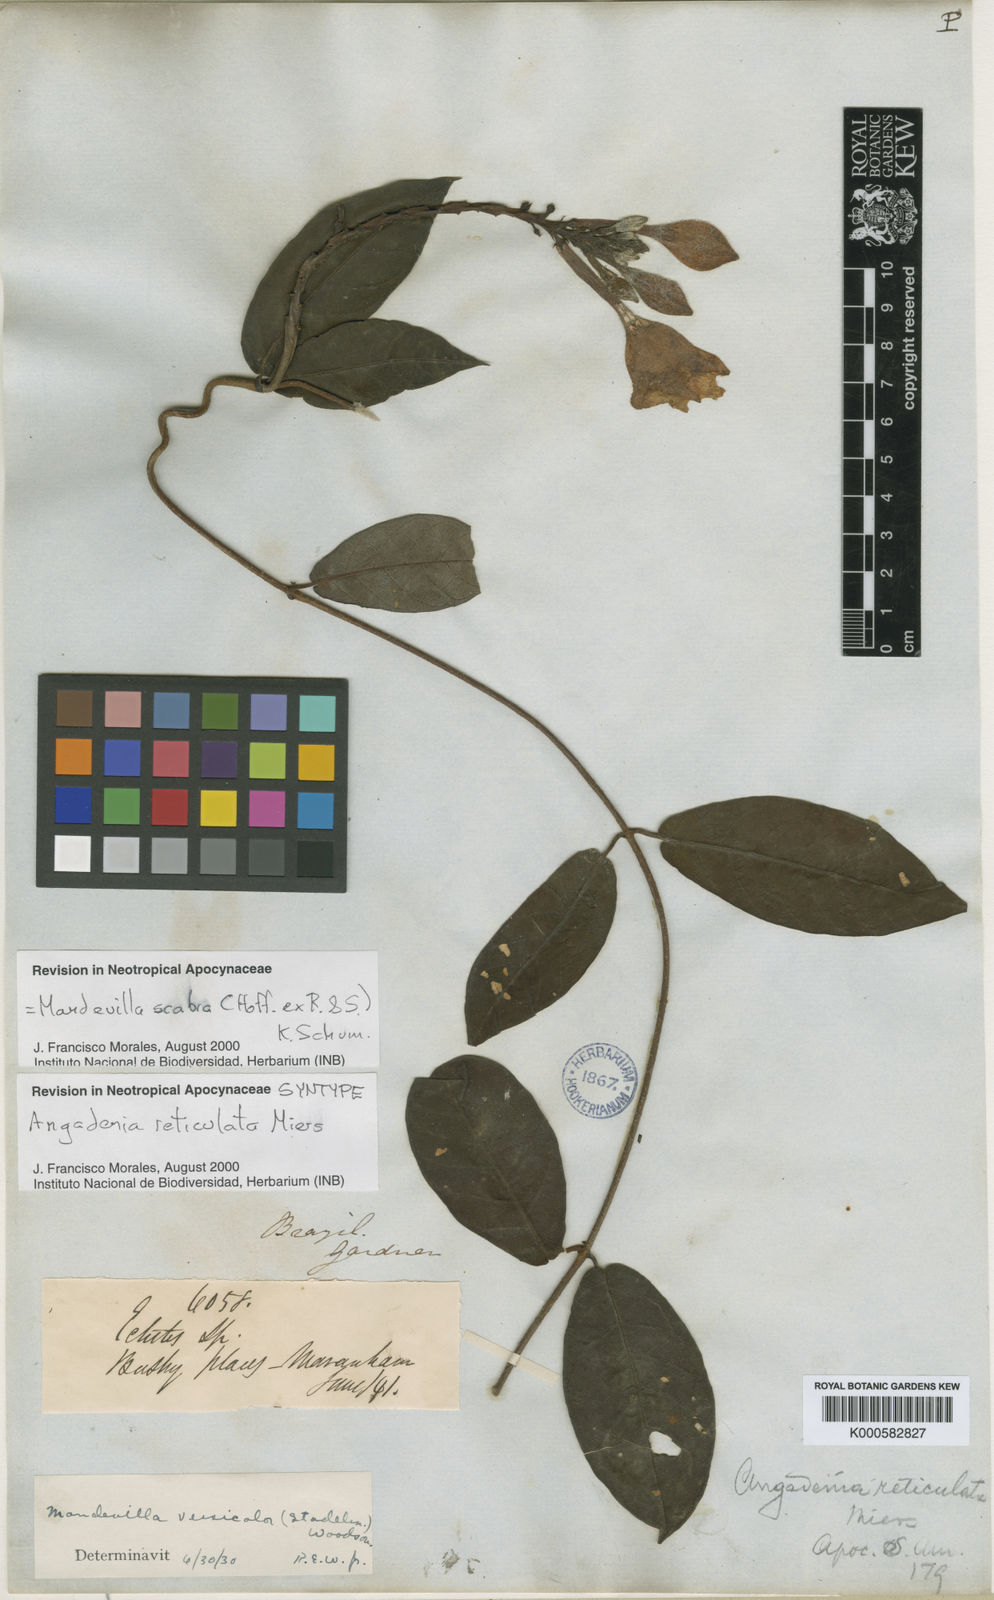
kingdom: Plantae
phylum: Tracheophyta
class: Magnoliopsida
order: Gentianales
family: Apocynaceae
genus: Mandevilla
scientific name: Mandevilla scabra
